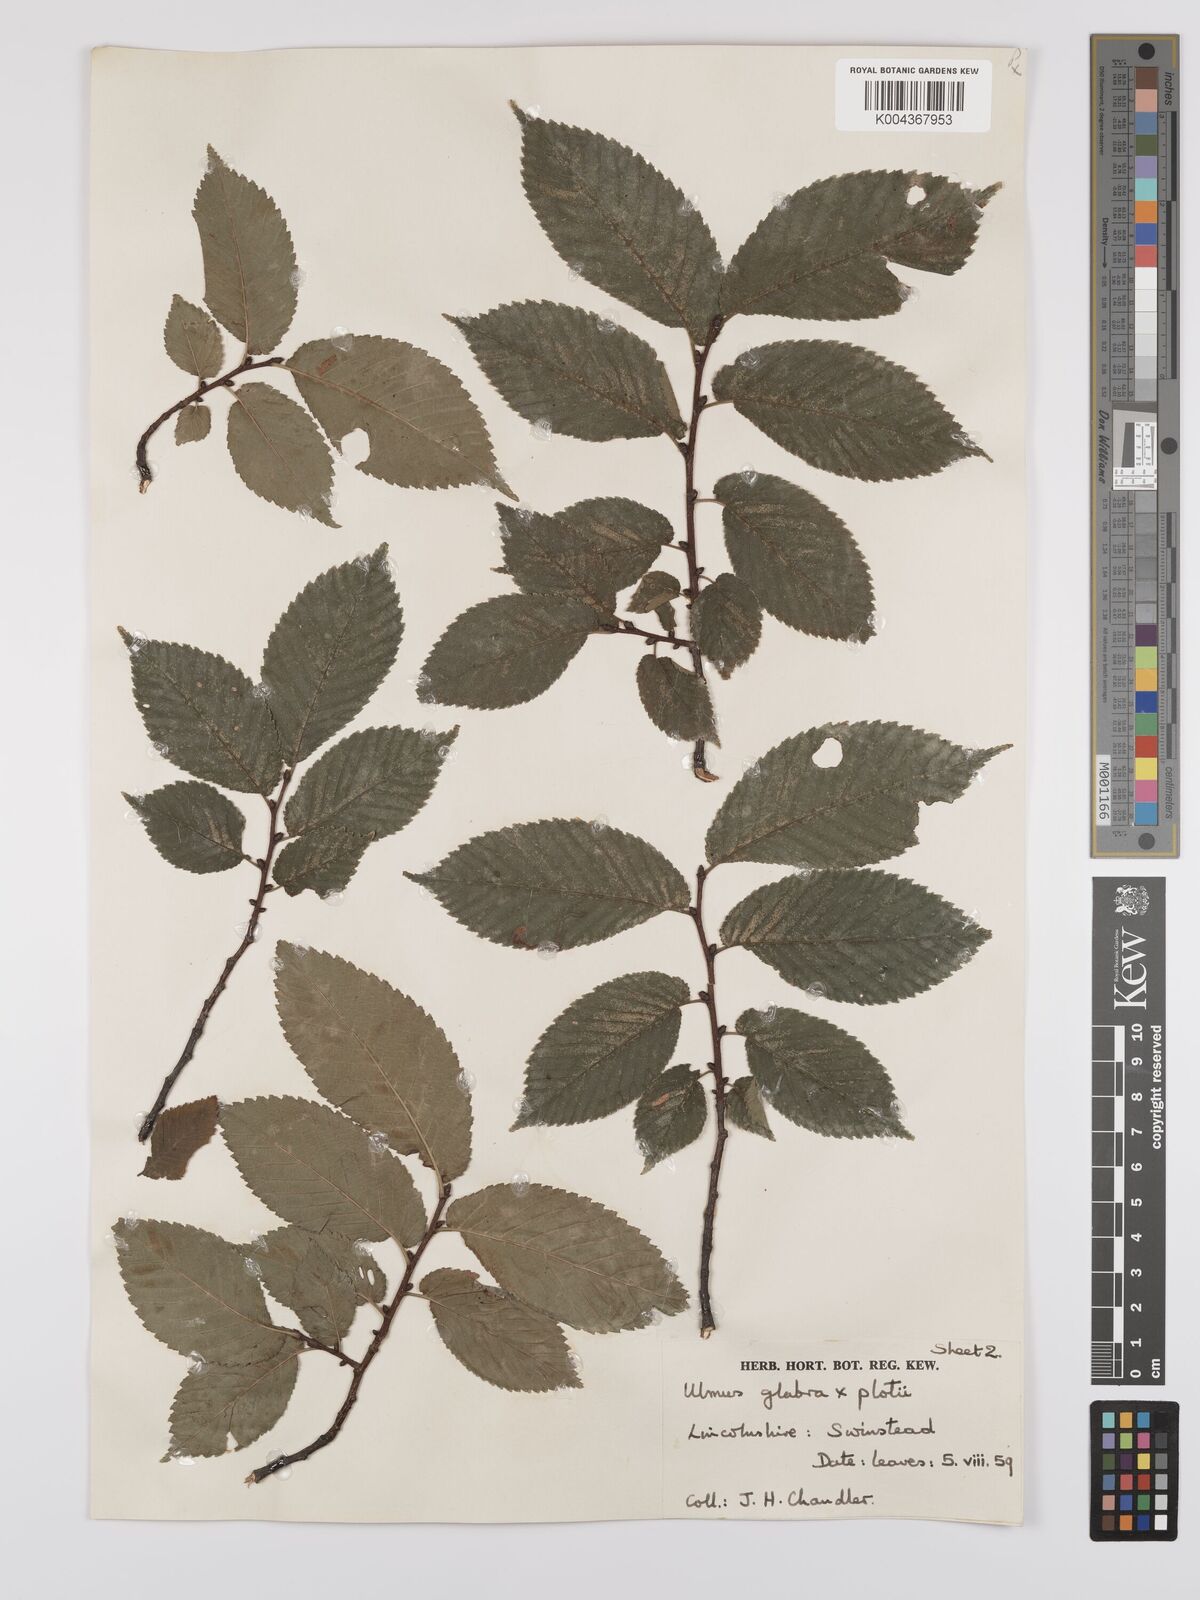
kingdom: Plantae
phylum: Tracheophyta
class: Magnoliopsida
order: Rosales
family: Ulmaceae
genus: Ulmus
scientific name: Ulmus glabra
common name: Wych elm
